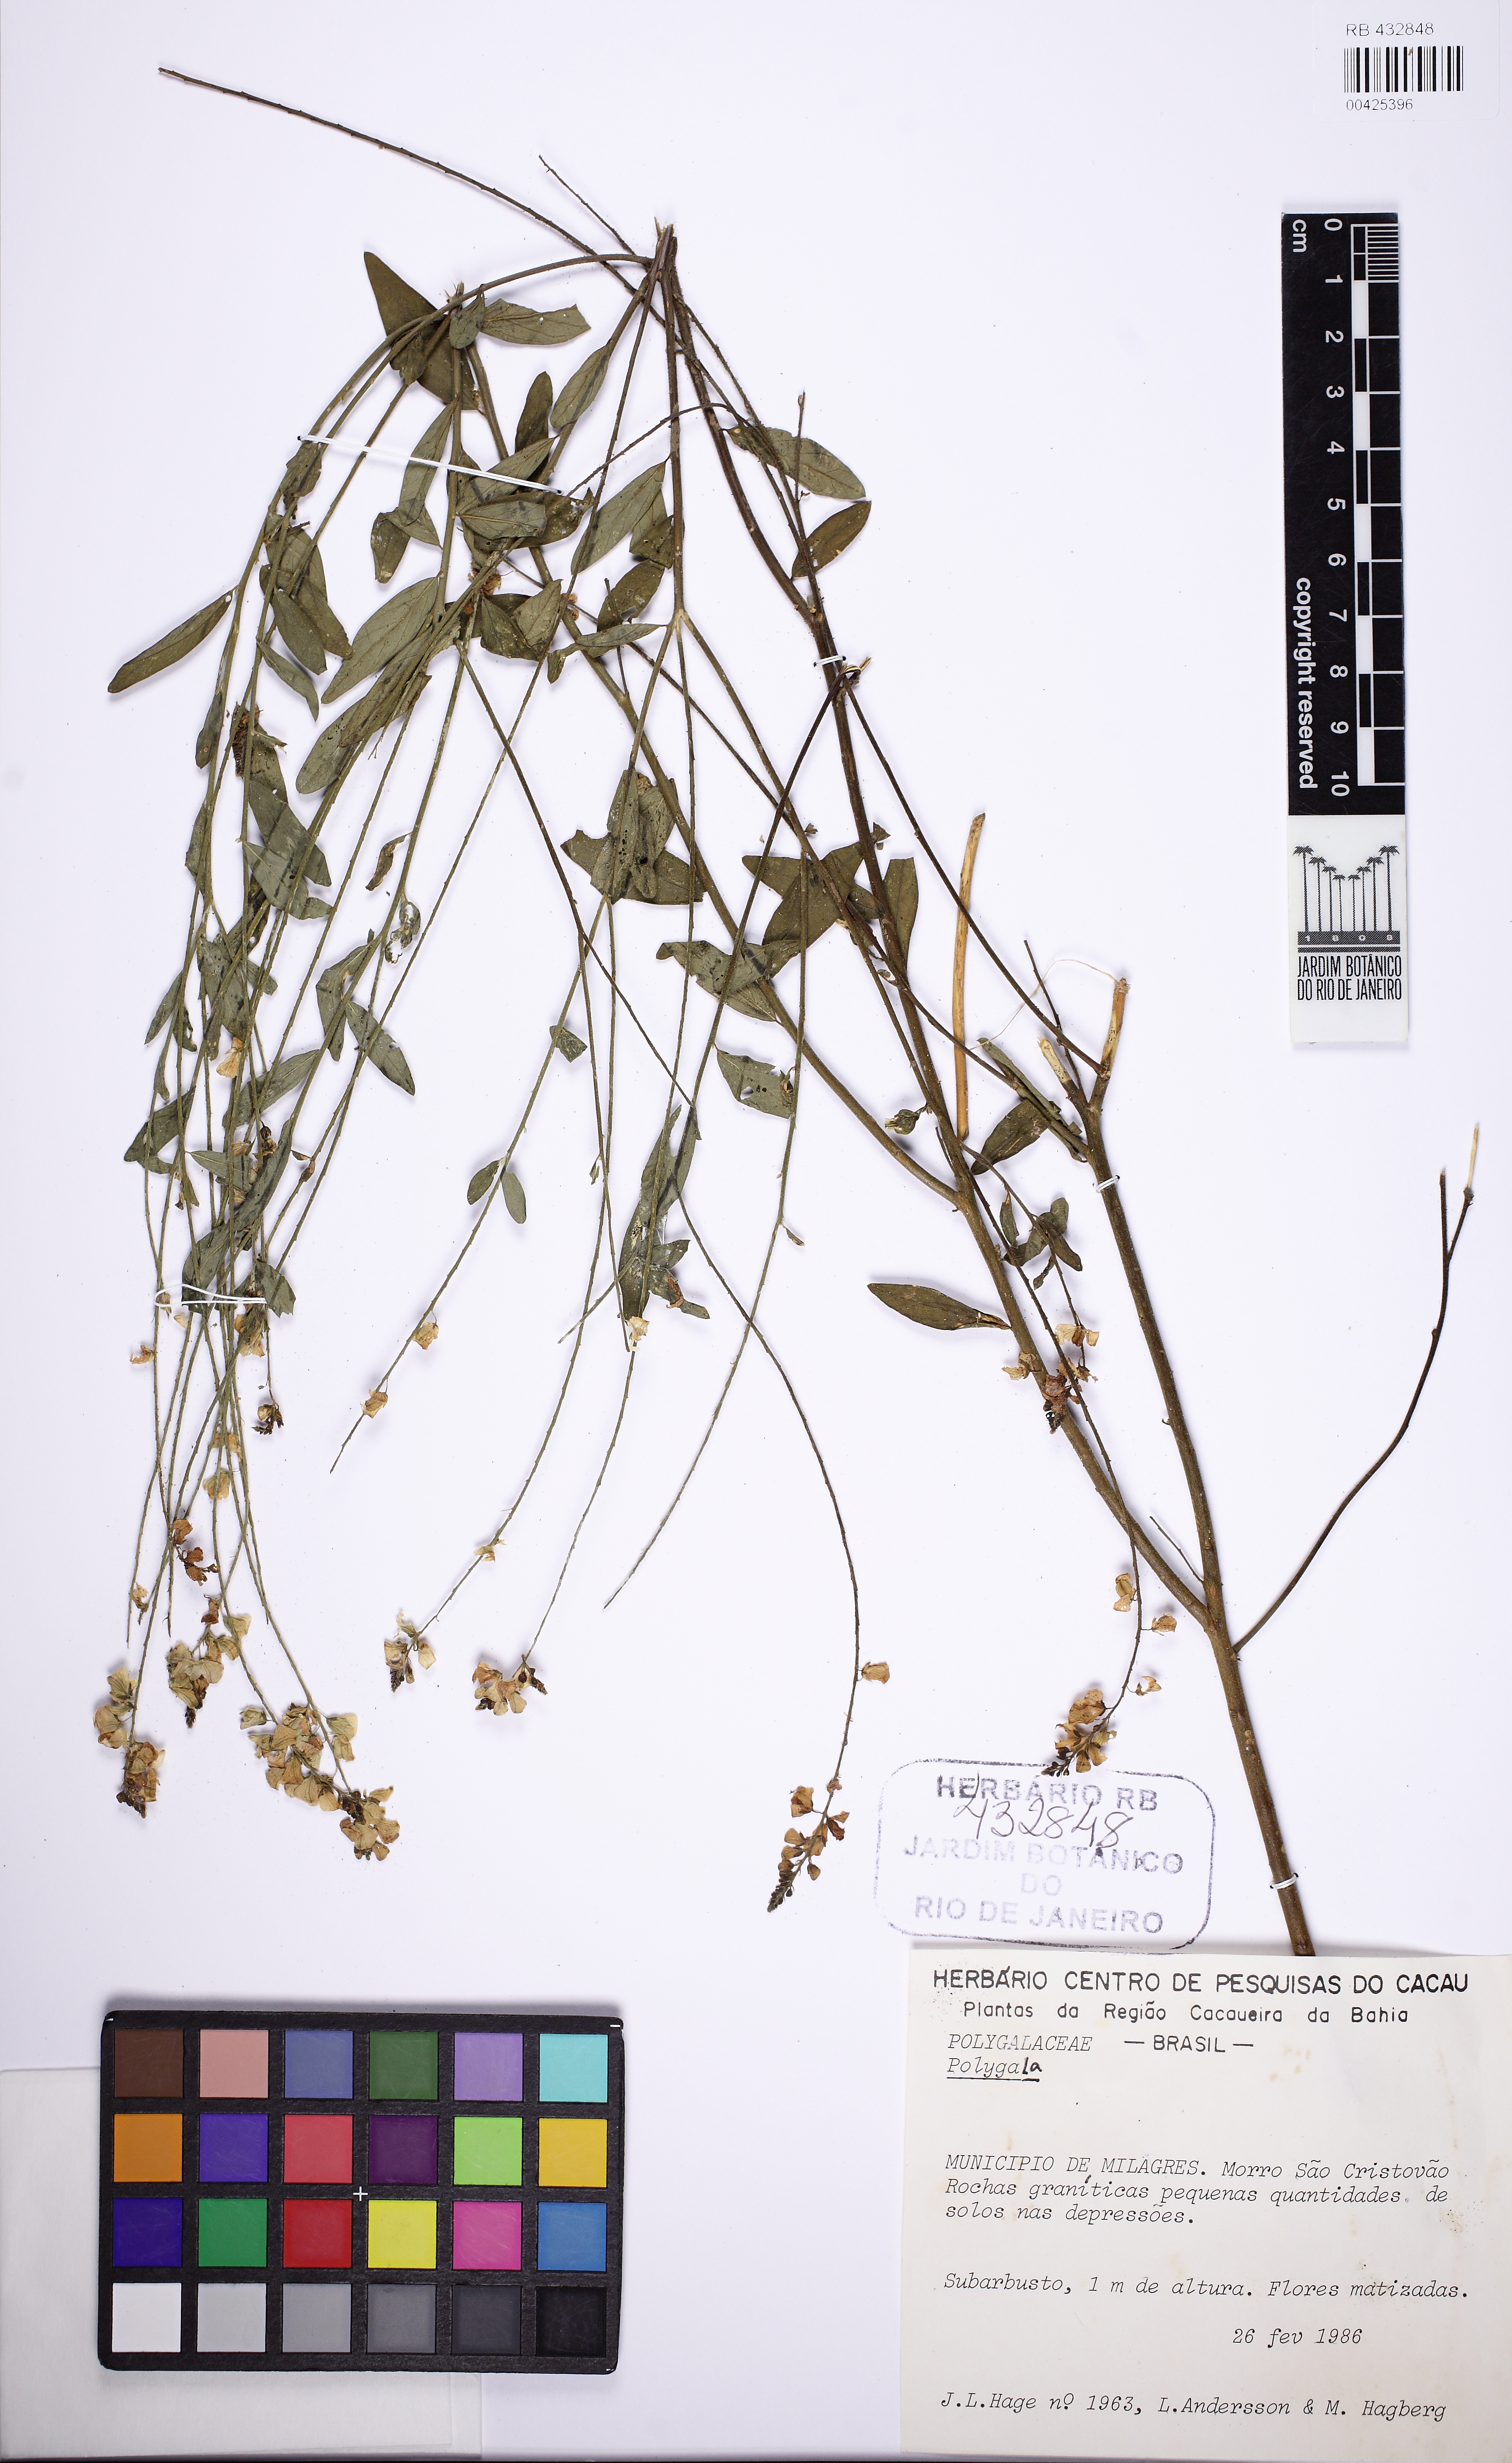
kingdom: Plantae
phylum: Tracheophyta
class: Magnoliopsida
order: Fabales
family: Polygalaceae
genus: Asemeia
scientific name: Asemeia
